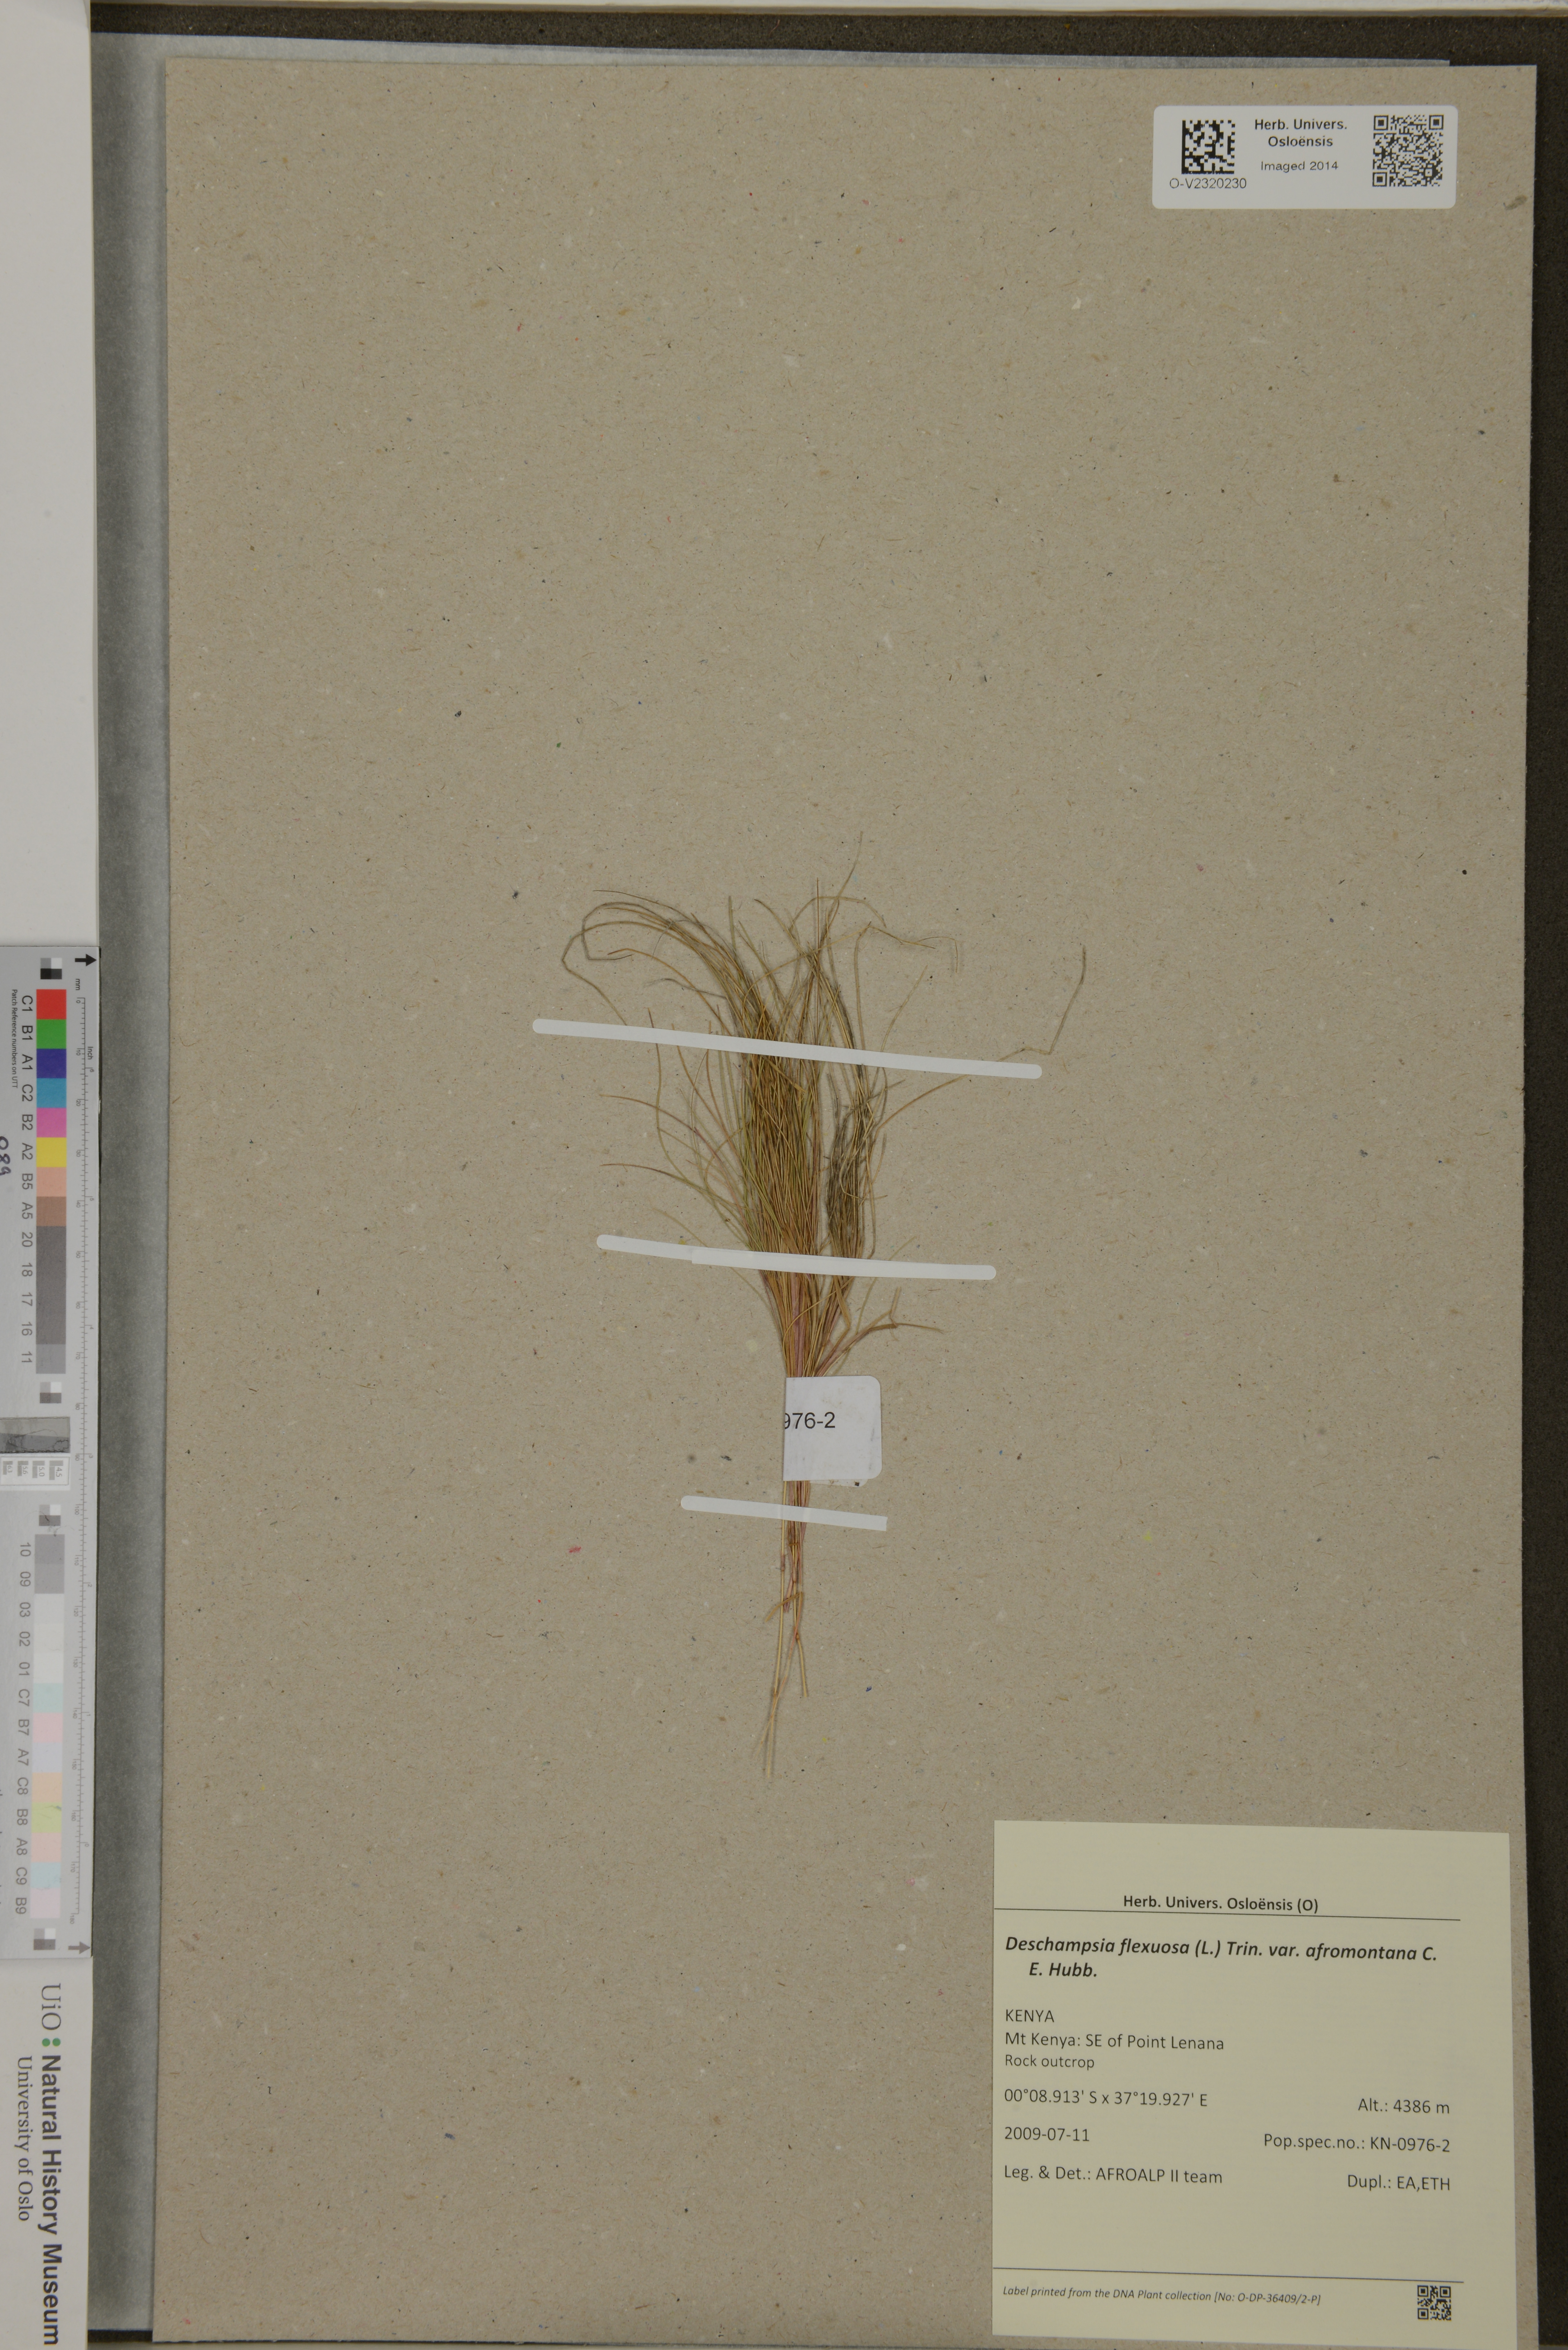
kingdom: Plantae
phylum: Tracheophyta
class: Liliopsida
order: Poales
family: Poaceae
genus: Avenella
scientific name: Avenella flexuosa
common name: Wavy hairgrass
